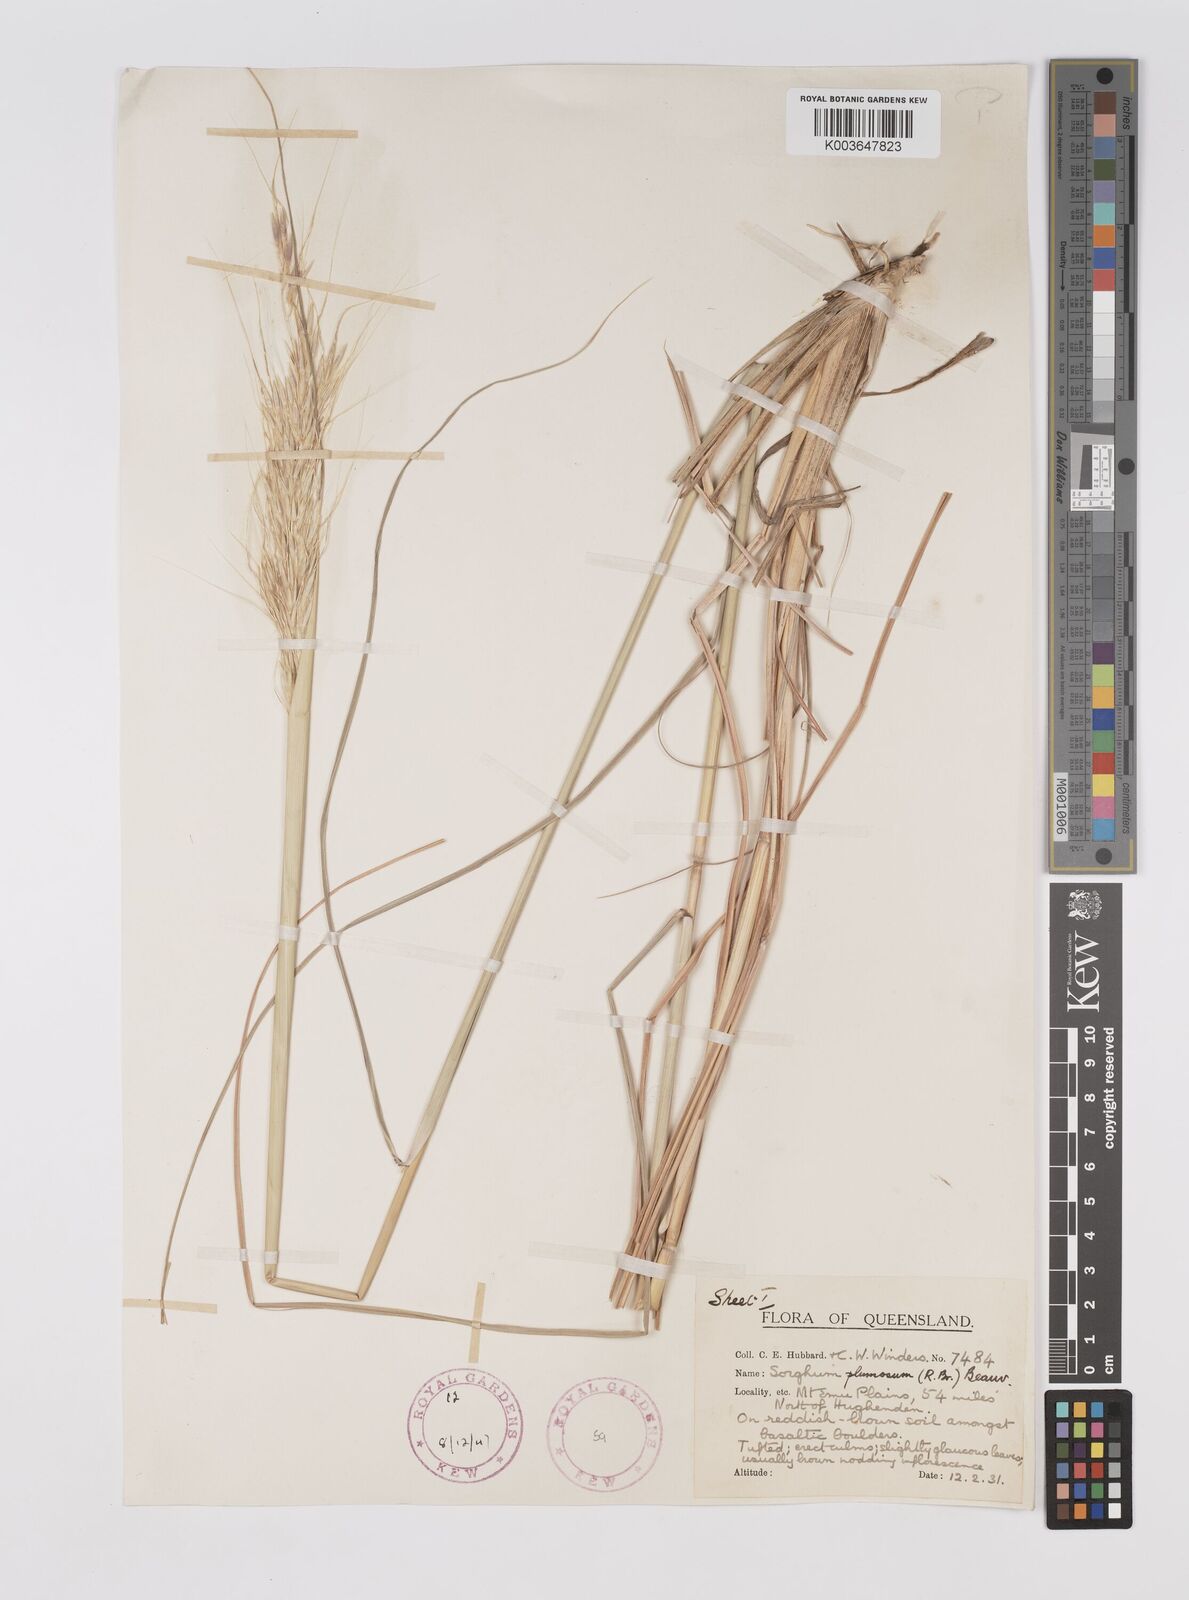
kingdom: Plantae
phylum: Tracheophyta
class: Liliopsida
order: Poales
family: Poaceae
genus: Sarga
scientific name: Sarga plumosa
